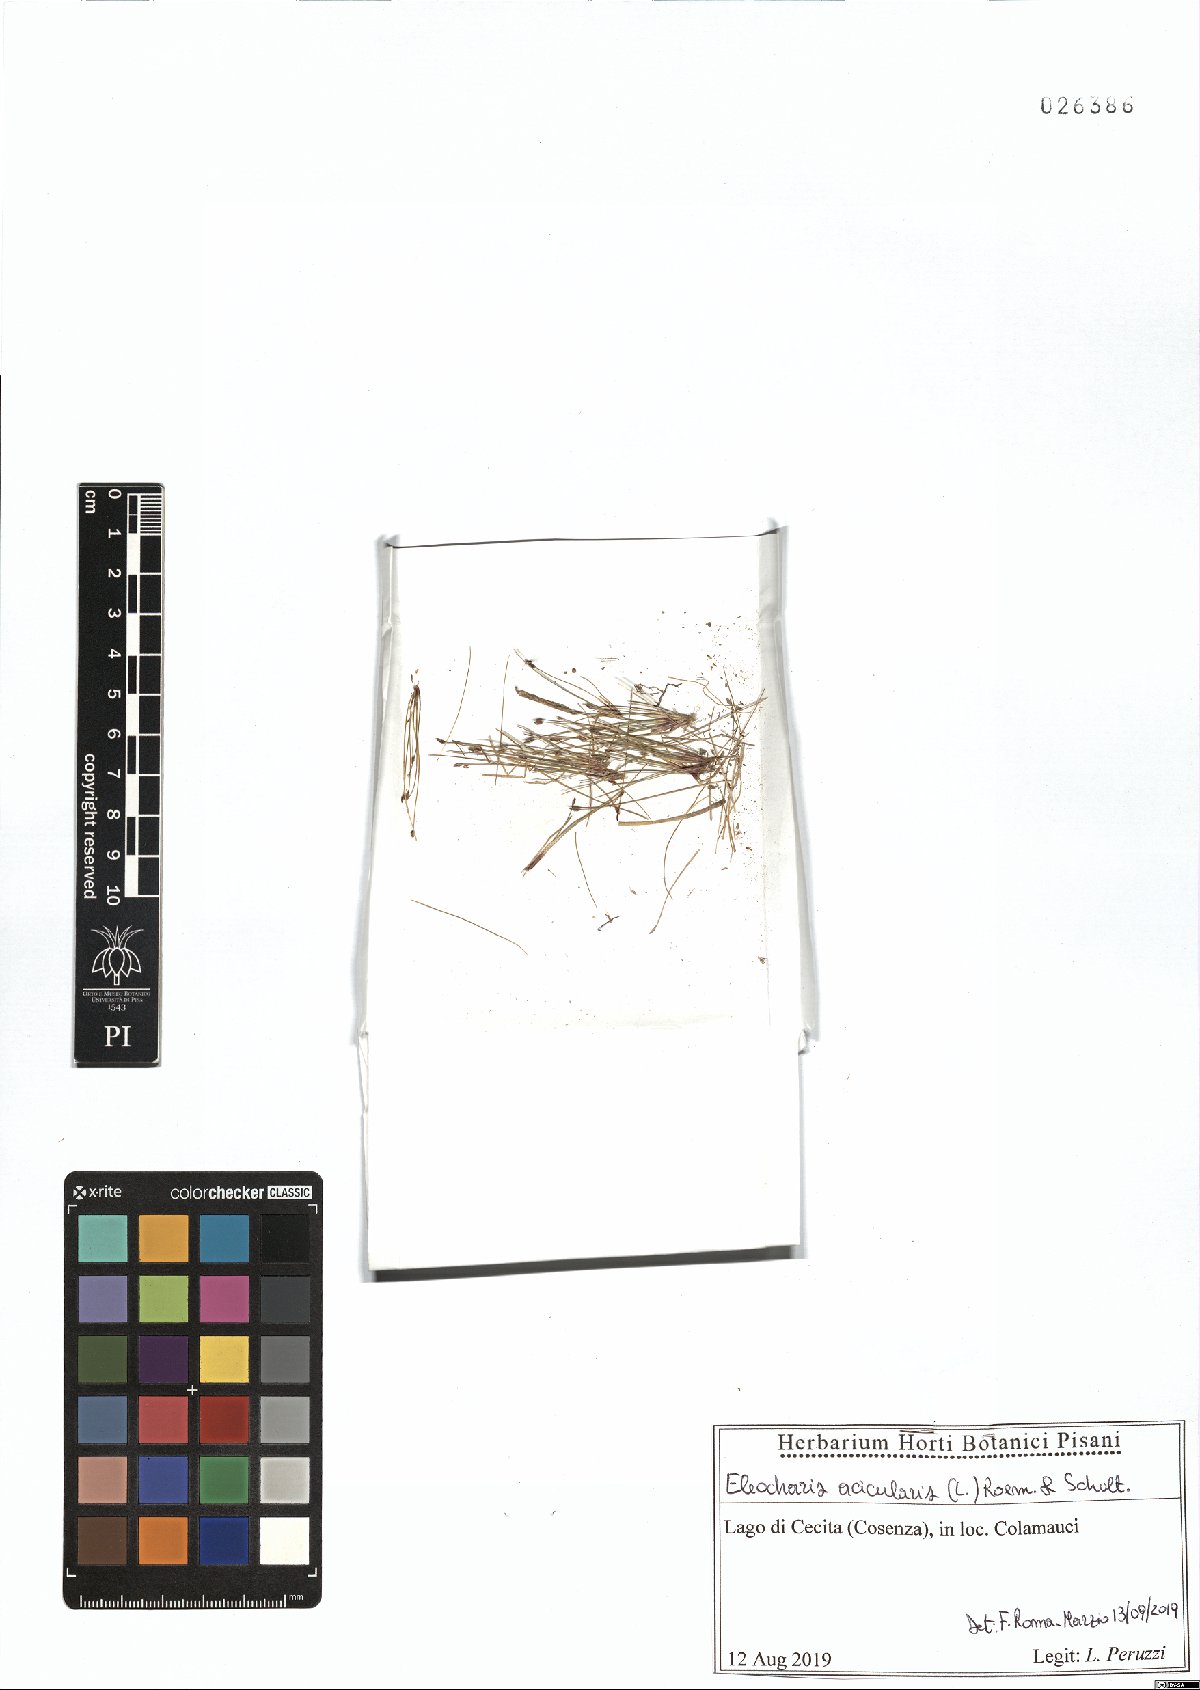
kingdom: Plantae
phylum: Tracheophyta
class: Liliopsida
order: Poales
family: Cyperaceae
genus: Eleocharis
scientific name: Eleocharis acicularis
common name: Needle spike-rush
